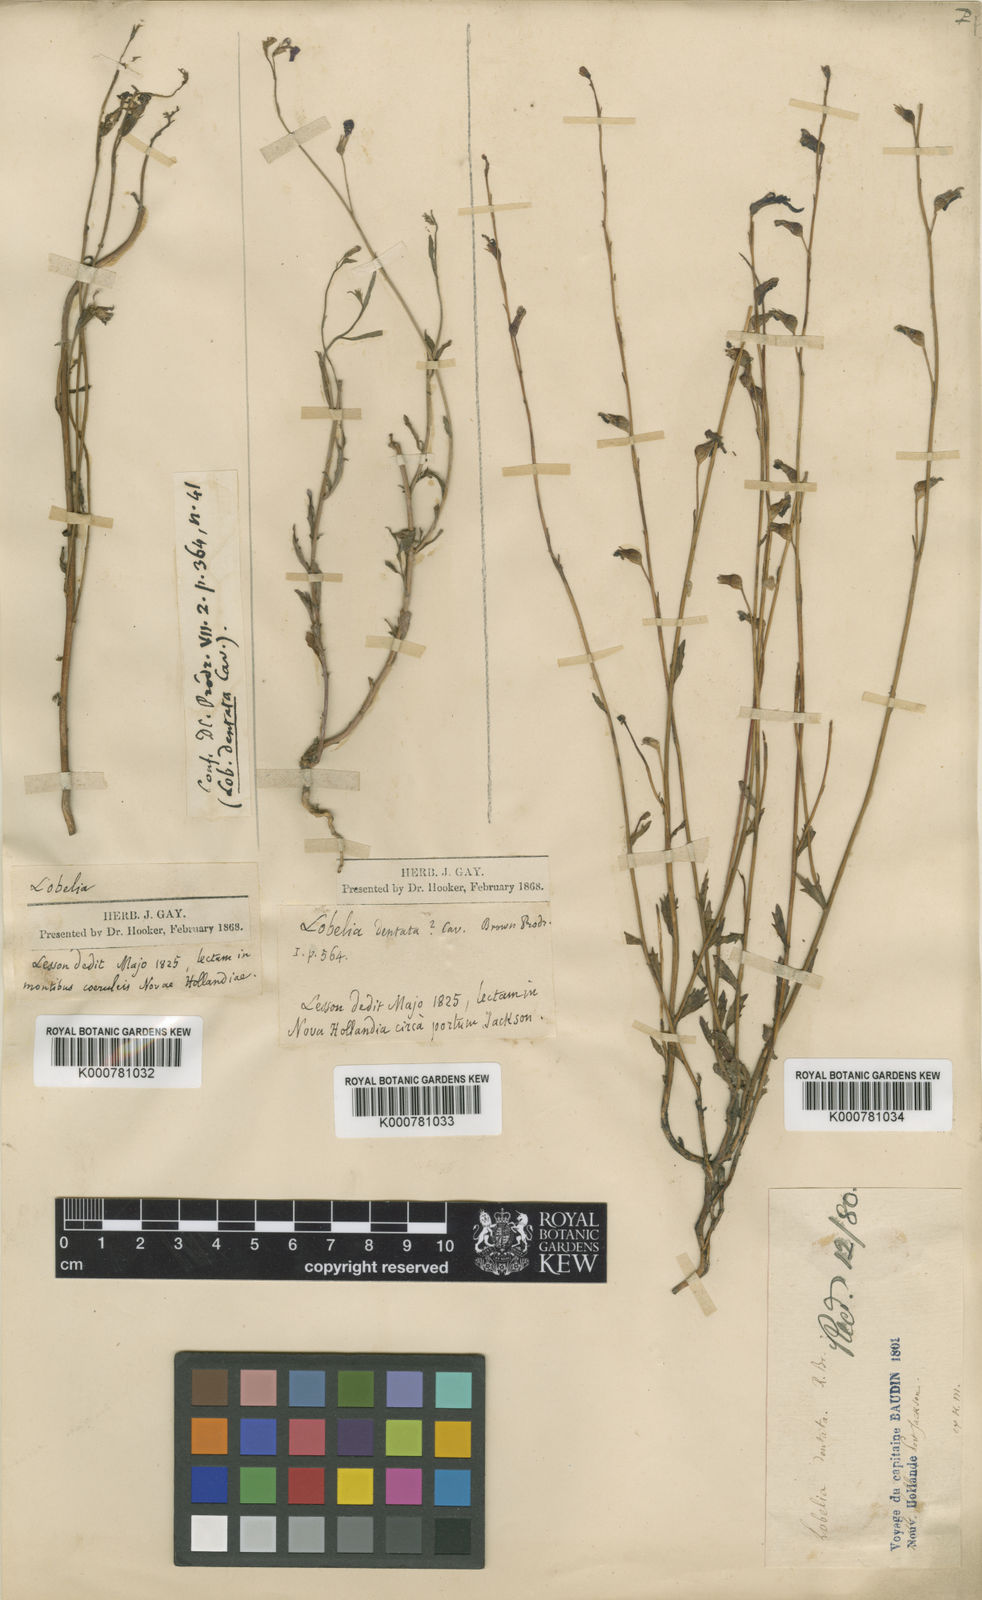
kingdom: Plantae
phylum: Tracheophyta
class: Magnoliopsida
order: Asterales
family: Campanulaceae
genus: Lobelia
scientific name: Lobelia dentata
